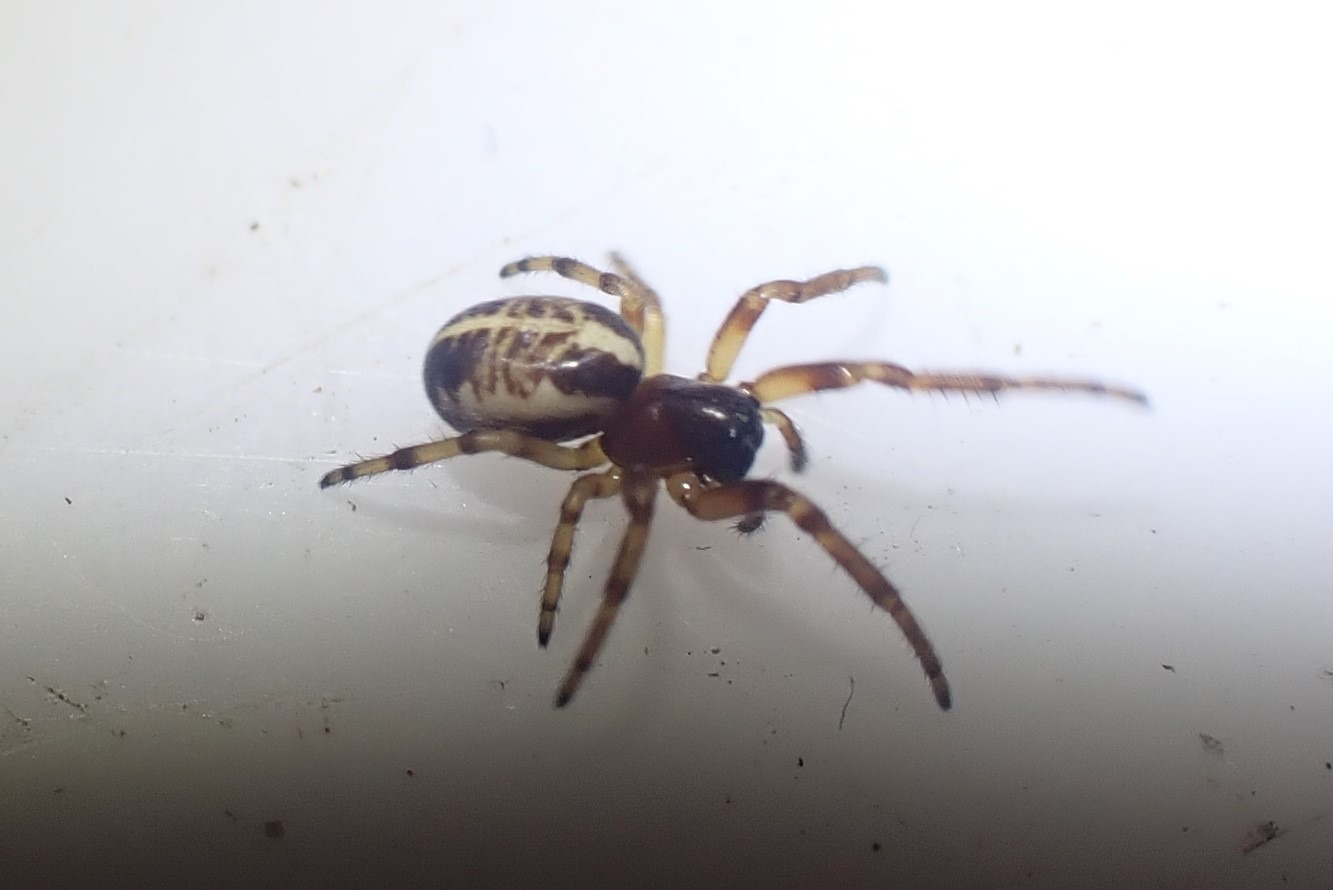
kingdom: Animalia
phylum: Arthropoda
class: Arachnida
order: Araneae
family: Araneidae
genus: Singa
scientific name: Singa hamata
